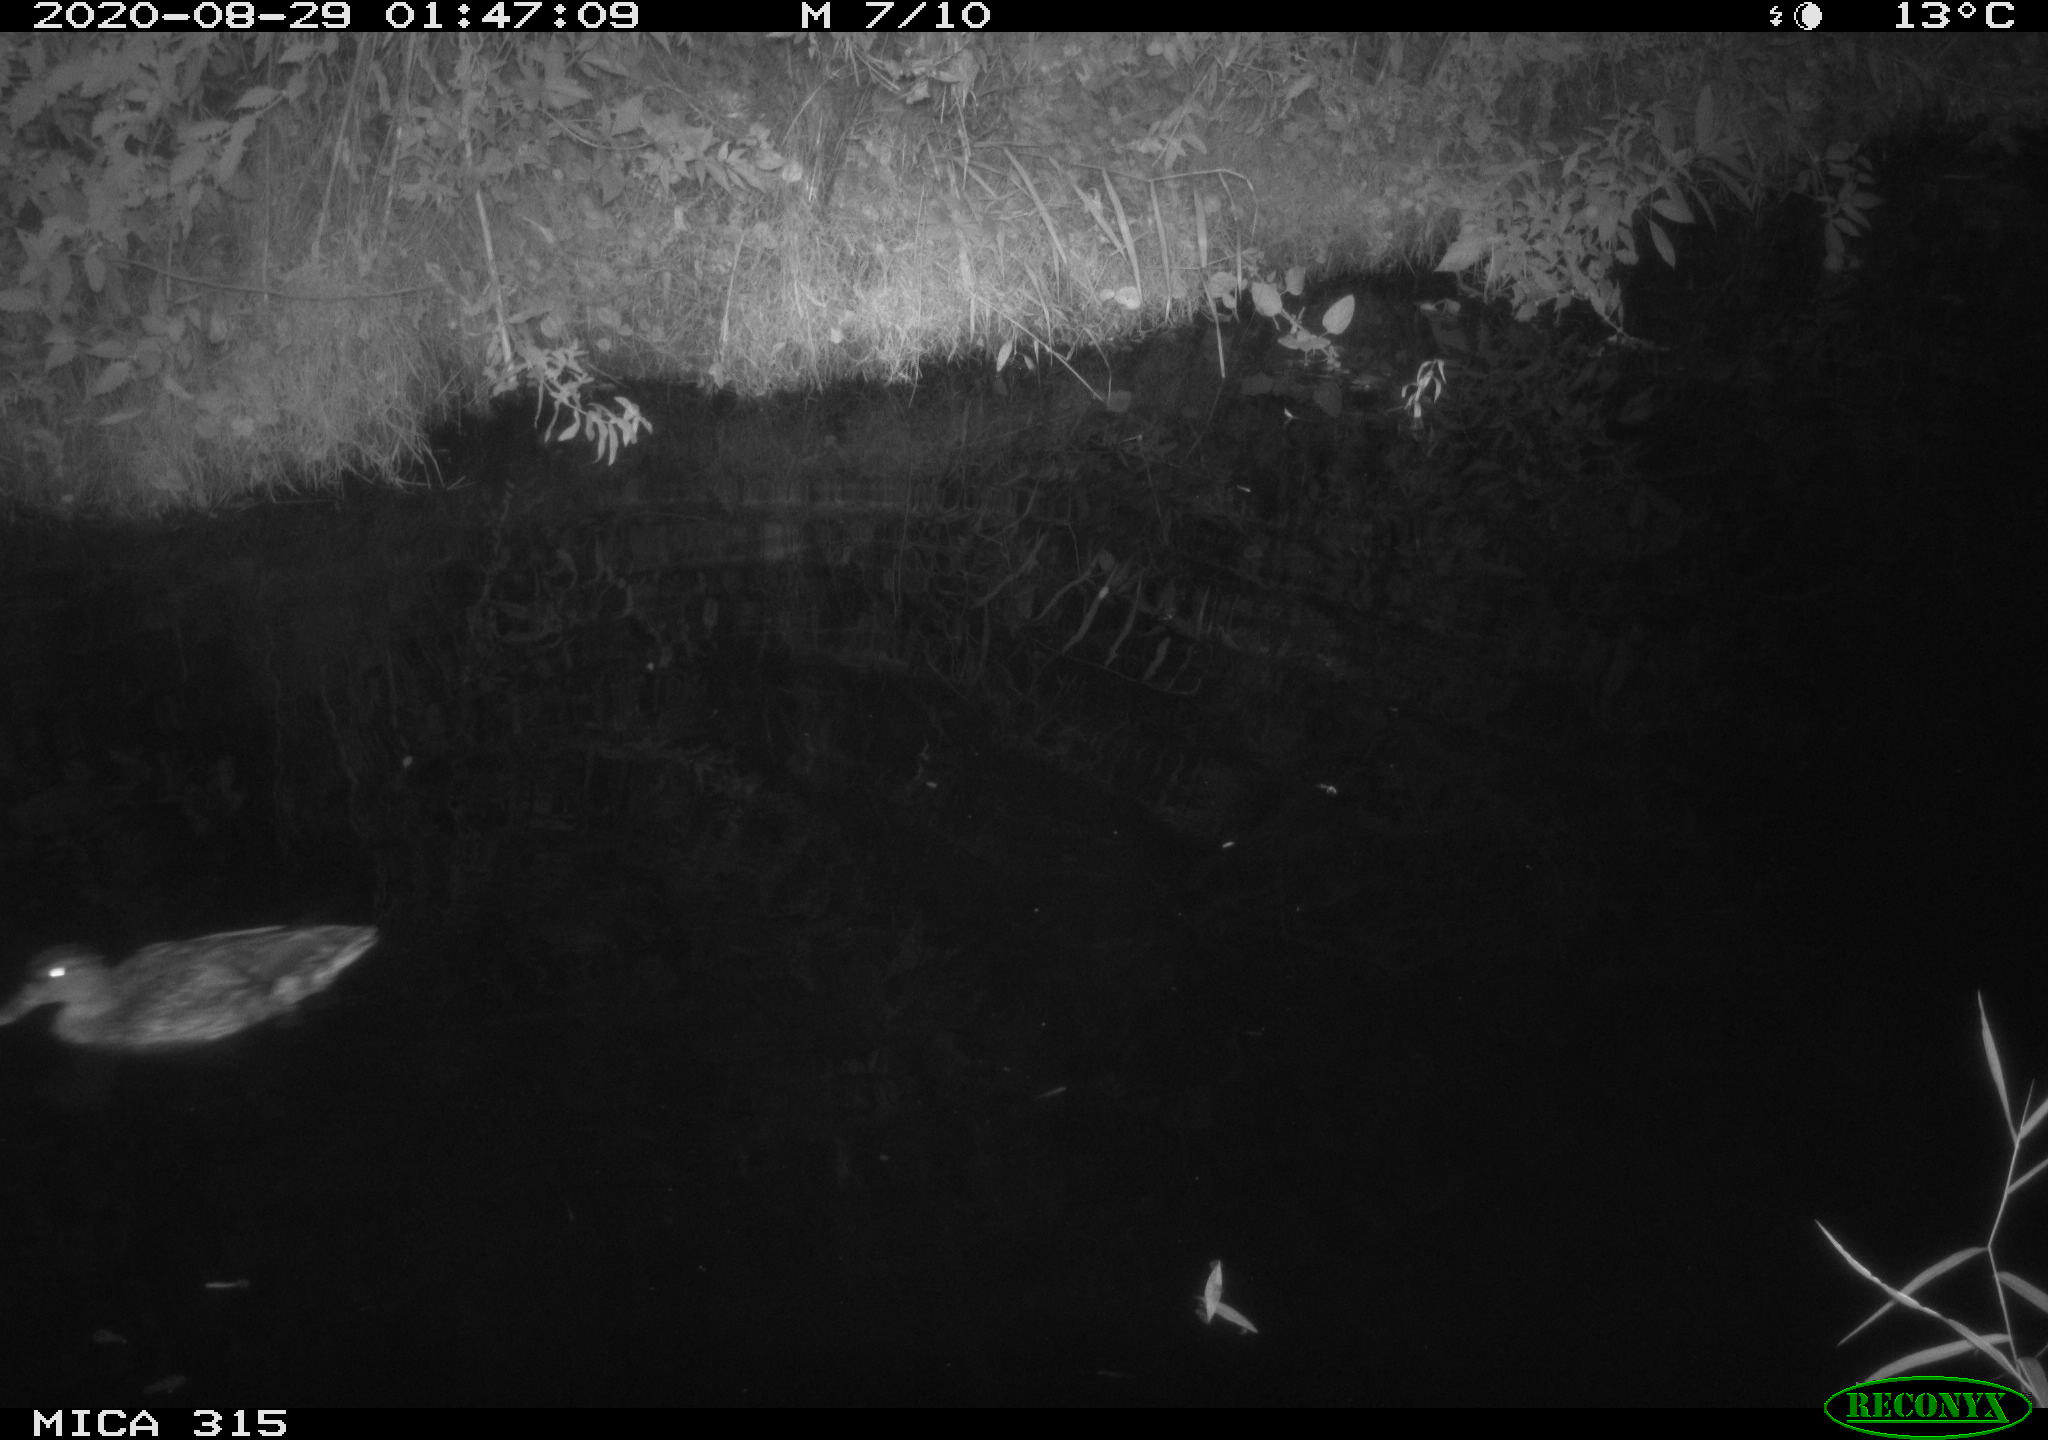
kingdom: Animalia
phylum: Chordata
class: Aves
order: Anseriformes
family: Anatidae
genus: Anas
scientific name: Anas platyrhynchos
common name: Mallard
